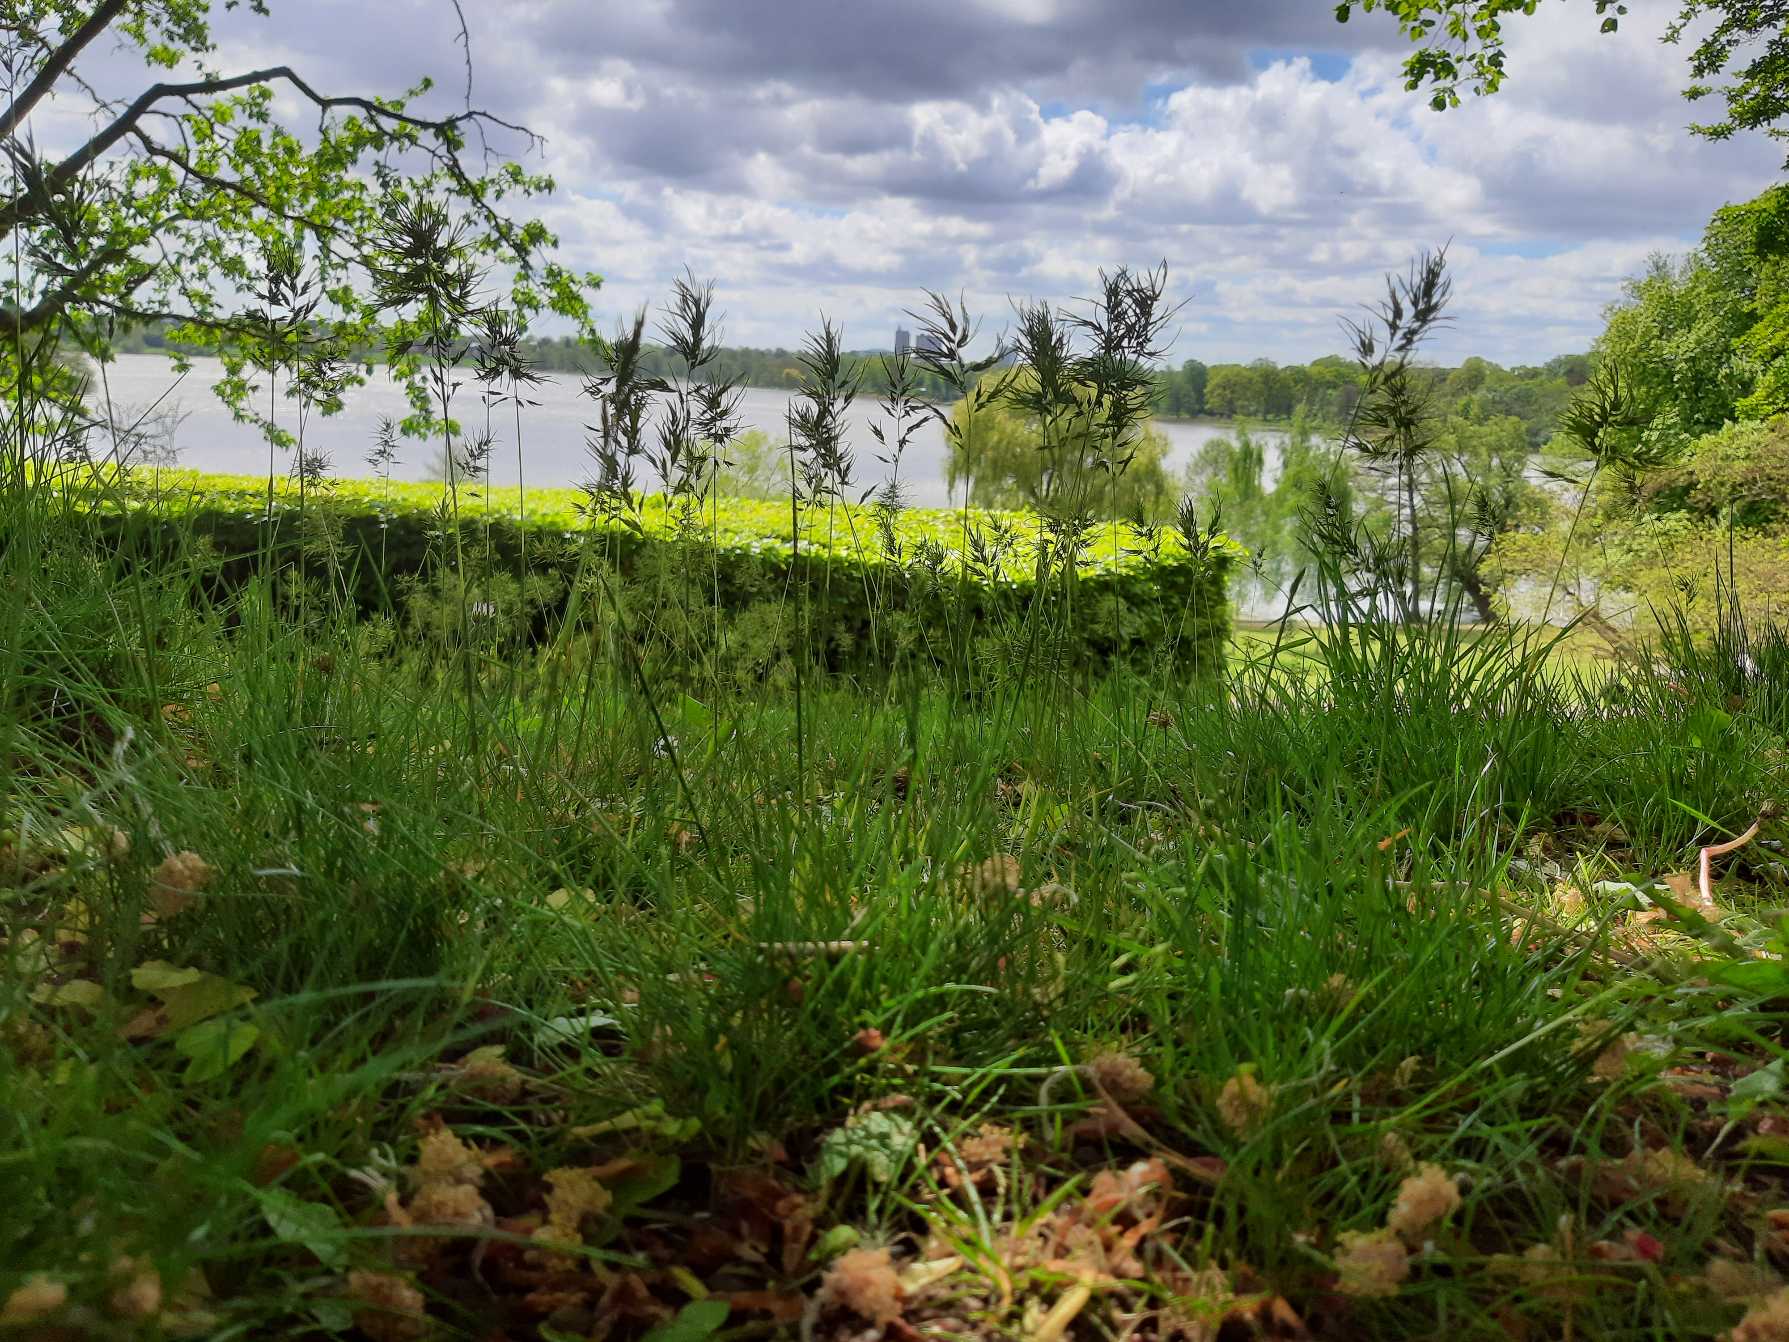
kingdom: Plantae
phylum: Tracheophyta
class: Liliopsida
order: Poales
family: Poaceae
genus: Poa
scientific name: Poa bulbosa
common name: Løg-rapgræs
